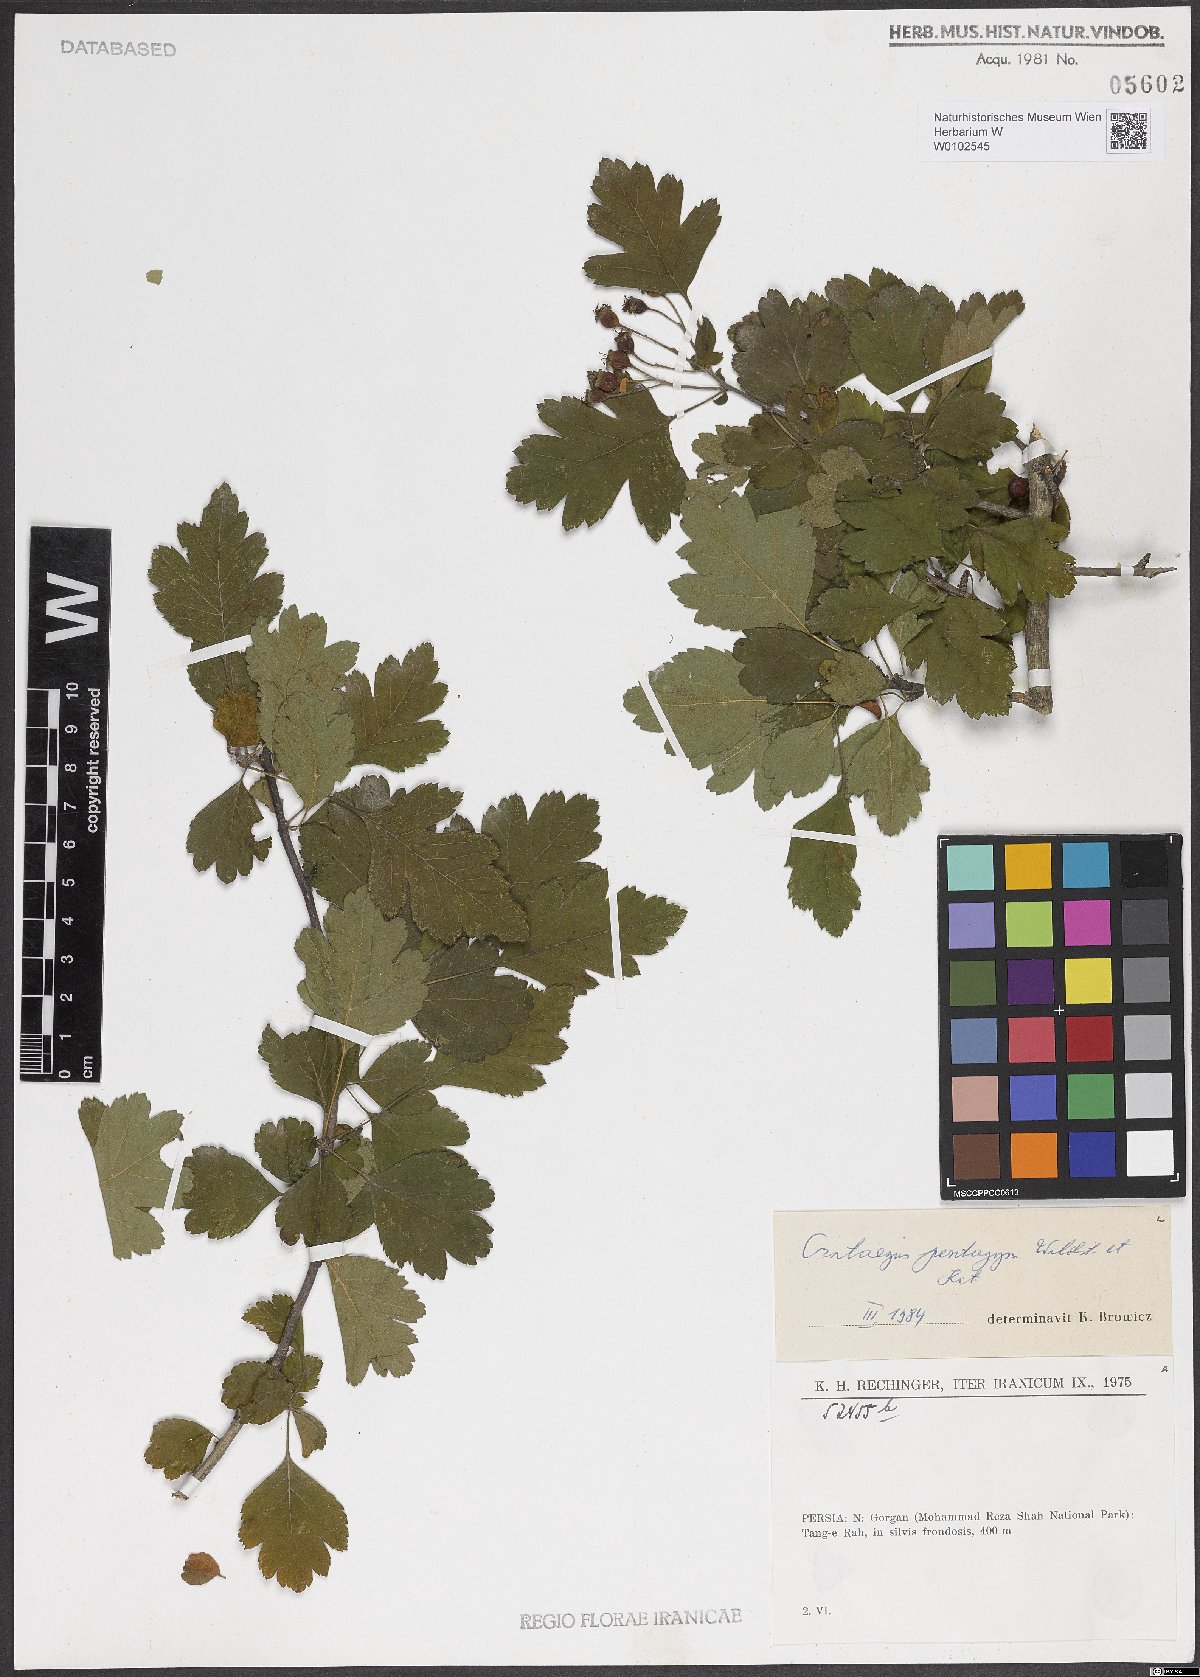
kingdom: Plantae
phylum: Tracheophyta
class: Magnoliopsida
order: Rosales
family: Rosaceae
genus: Crataegus
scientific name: Crataegus pentagyna
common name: Small-flowered black hawthorn
